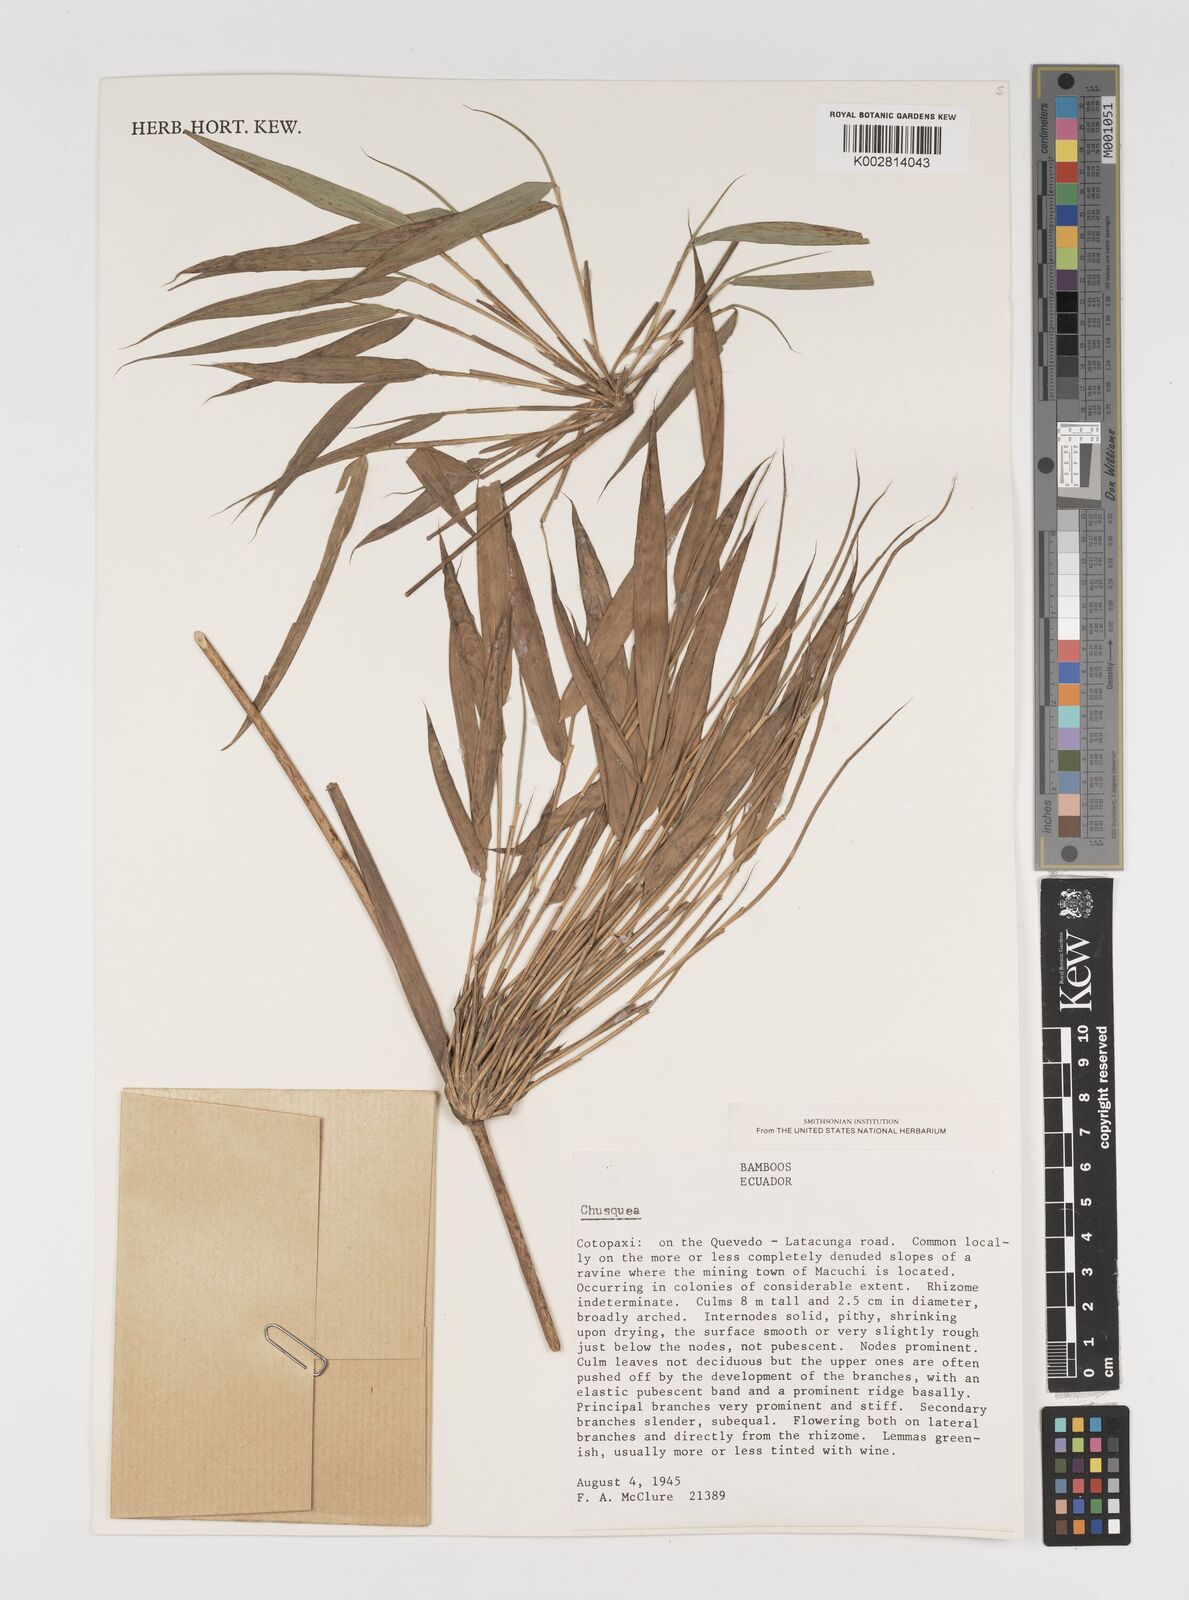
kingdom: Plantae
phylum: Tracheophyta
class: Liliopsida
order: Poales
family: Poaceae
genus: Chusquea
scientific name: Chusquea
